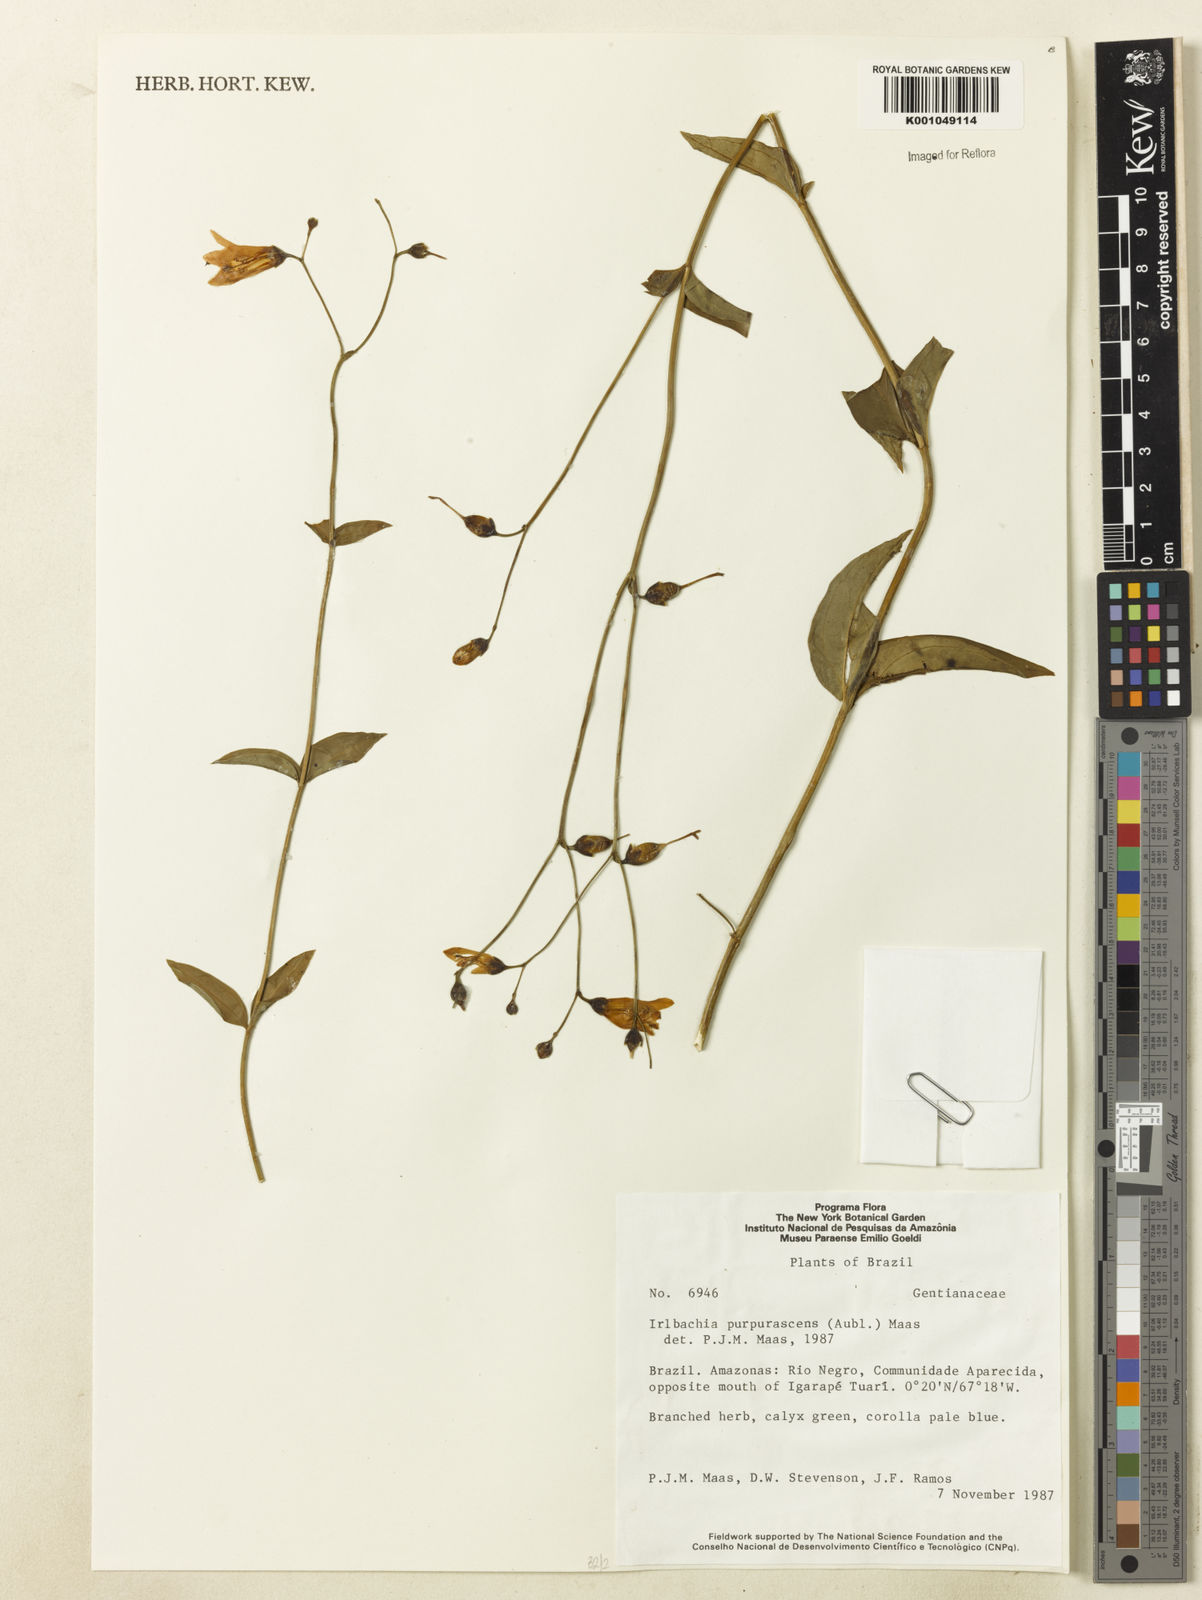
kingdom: Plantae
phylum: Tracheophyta
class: Magnoliopsida
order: Gentianales
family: Gentianaceae
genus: Chelonanthus
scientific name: Chelonanthus purpurascens
